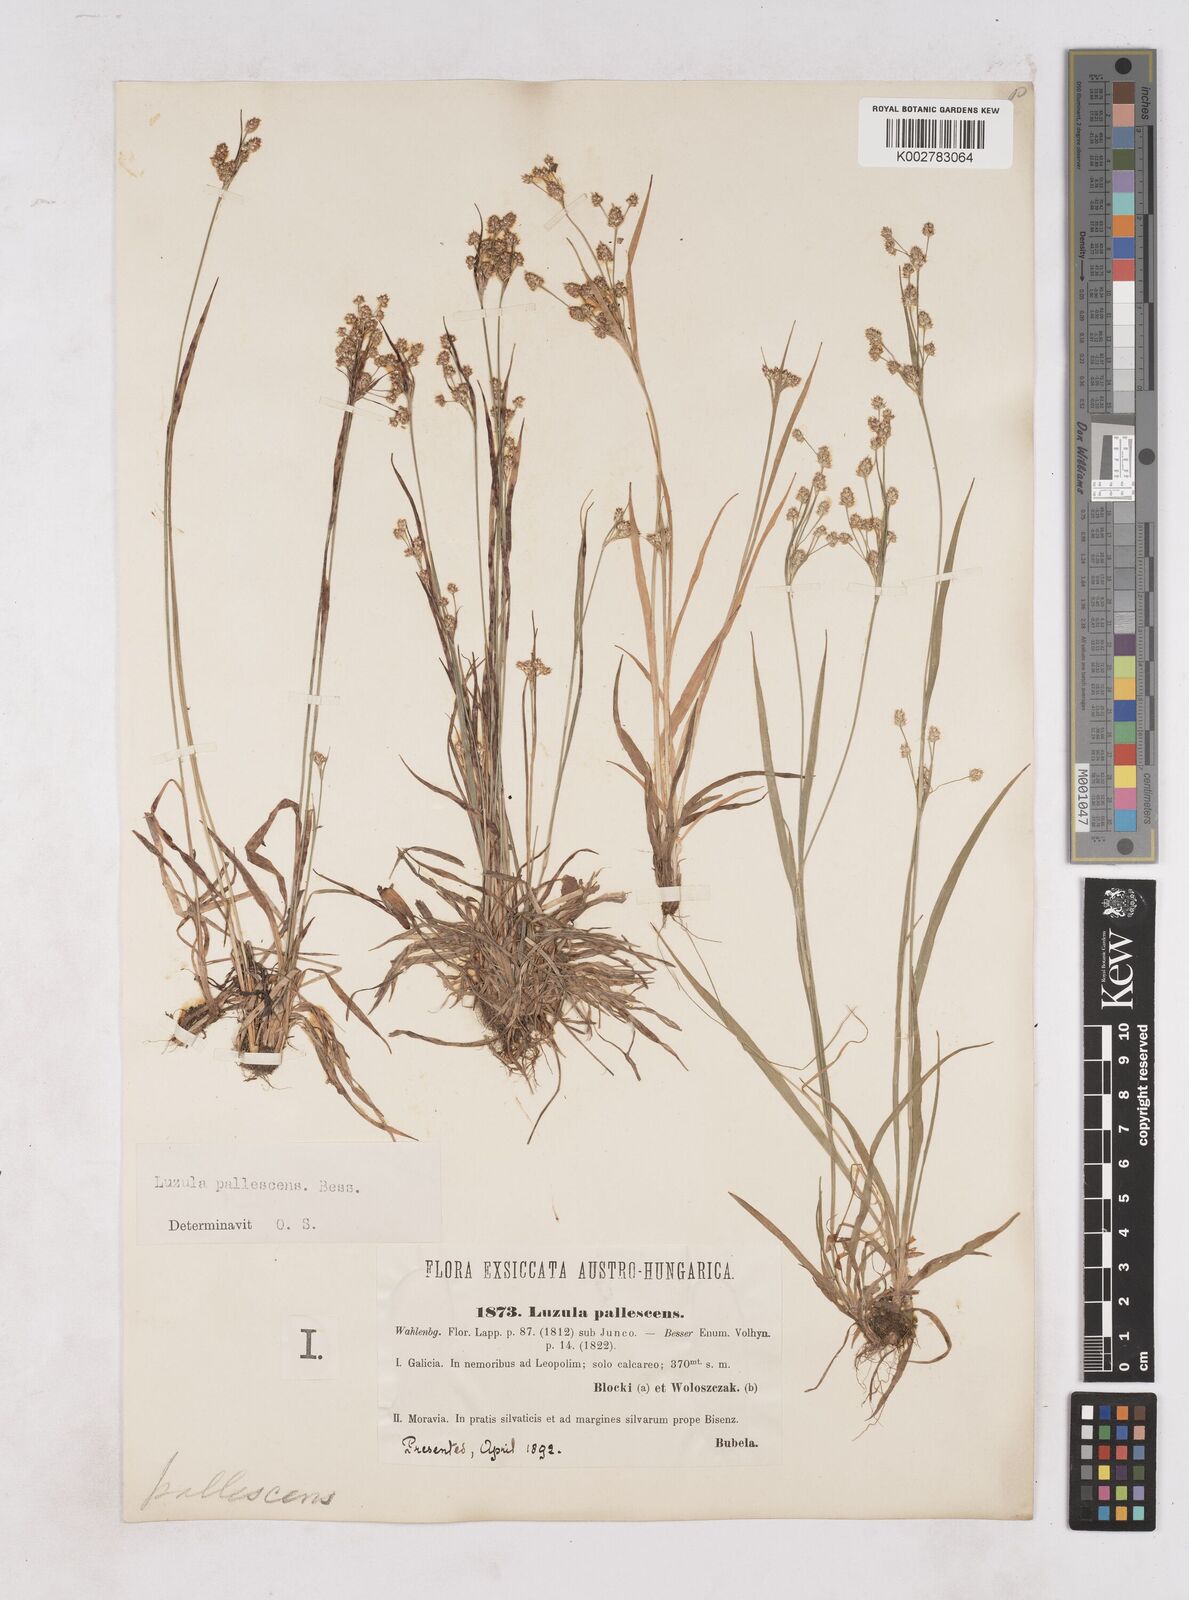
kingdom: Plantae
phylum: Tracheophyta
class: Liliopsida
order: Poales
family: Juncaceae
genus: Luzula
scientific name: Luzula pallescens
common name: Fen wood-rush
